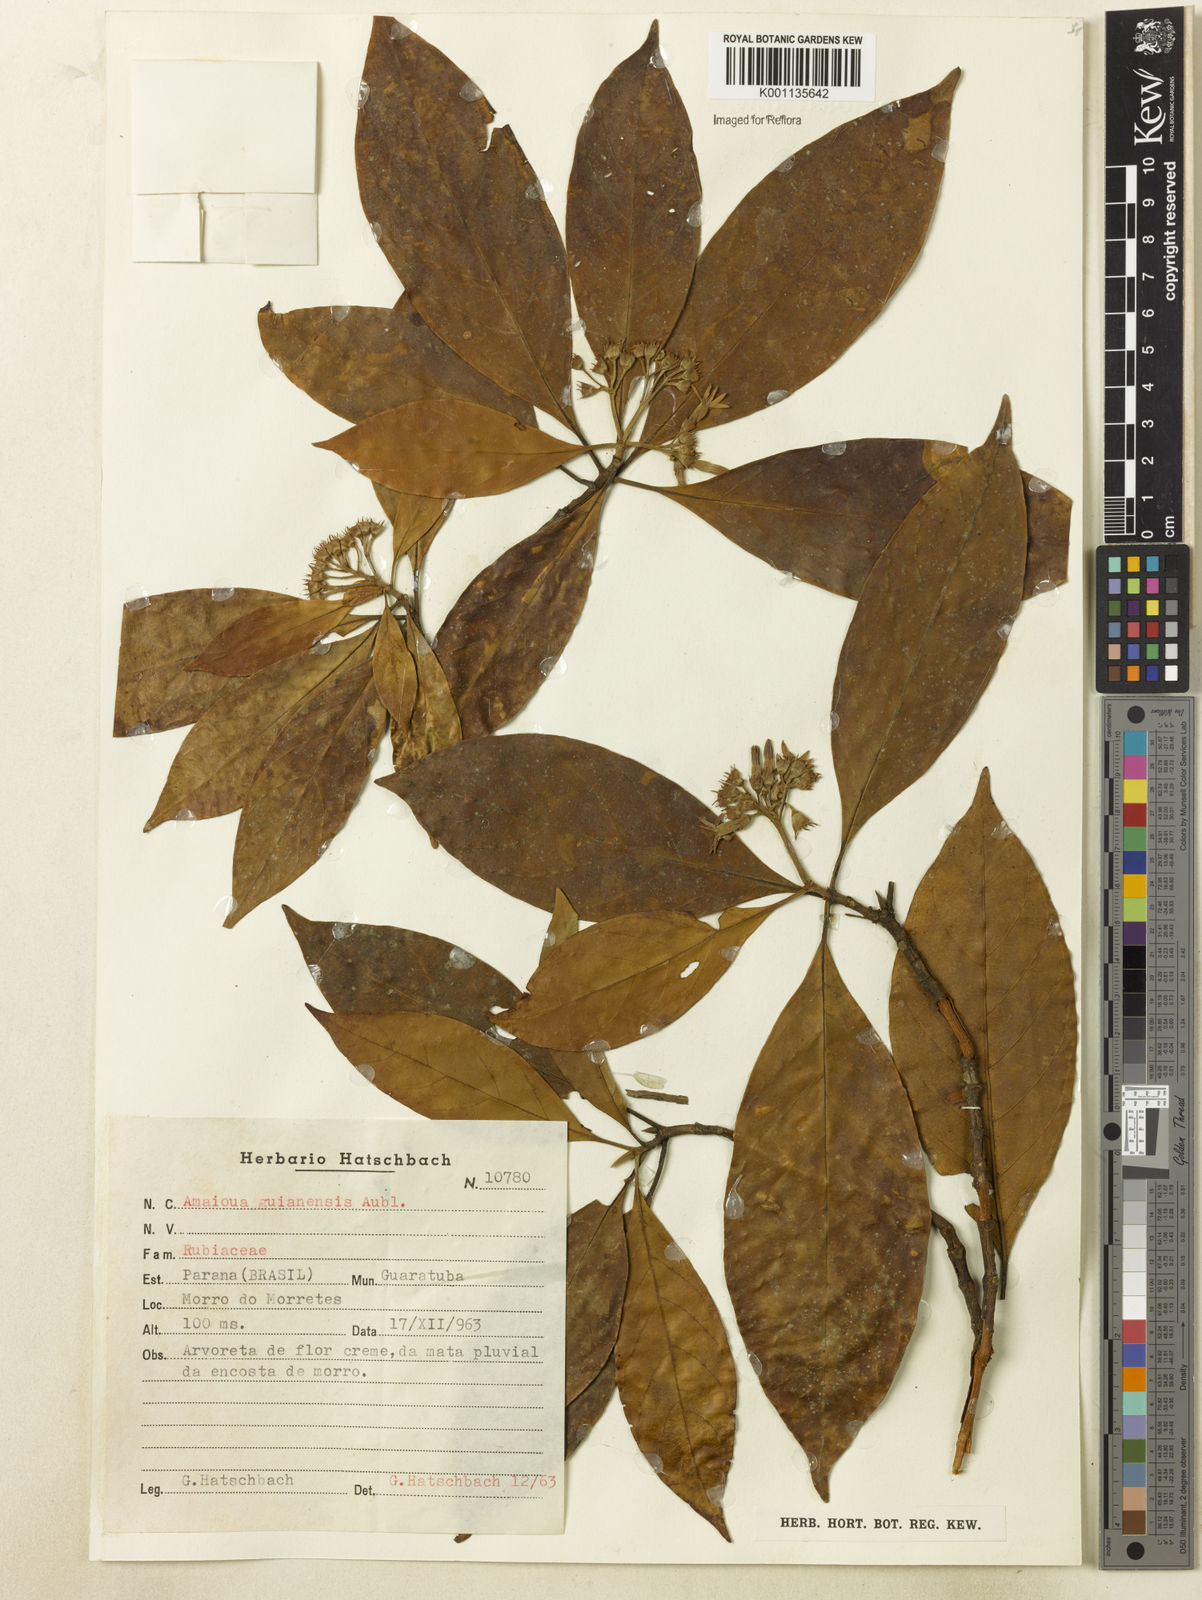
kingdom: Plantae
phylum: Tracheophyta
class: Magnoliopsida
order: Gentianales
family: Rubiaceae
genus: Amaioua
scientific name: Amaioua intermedia
